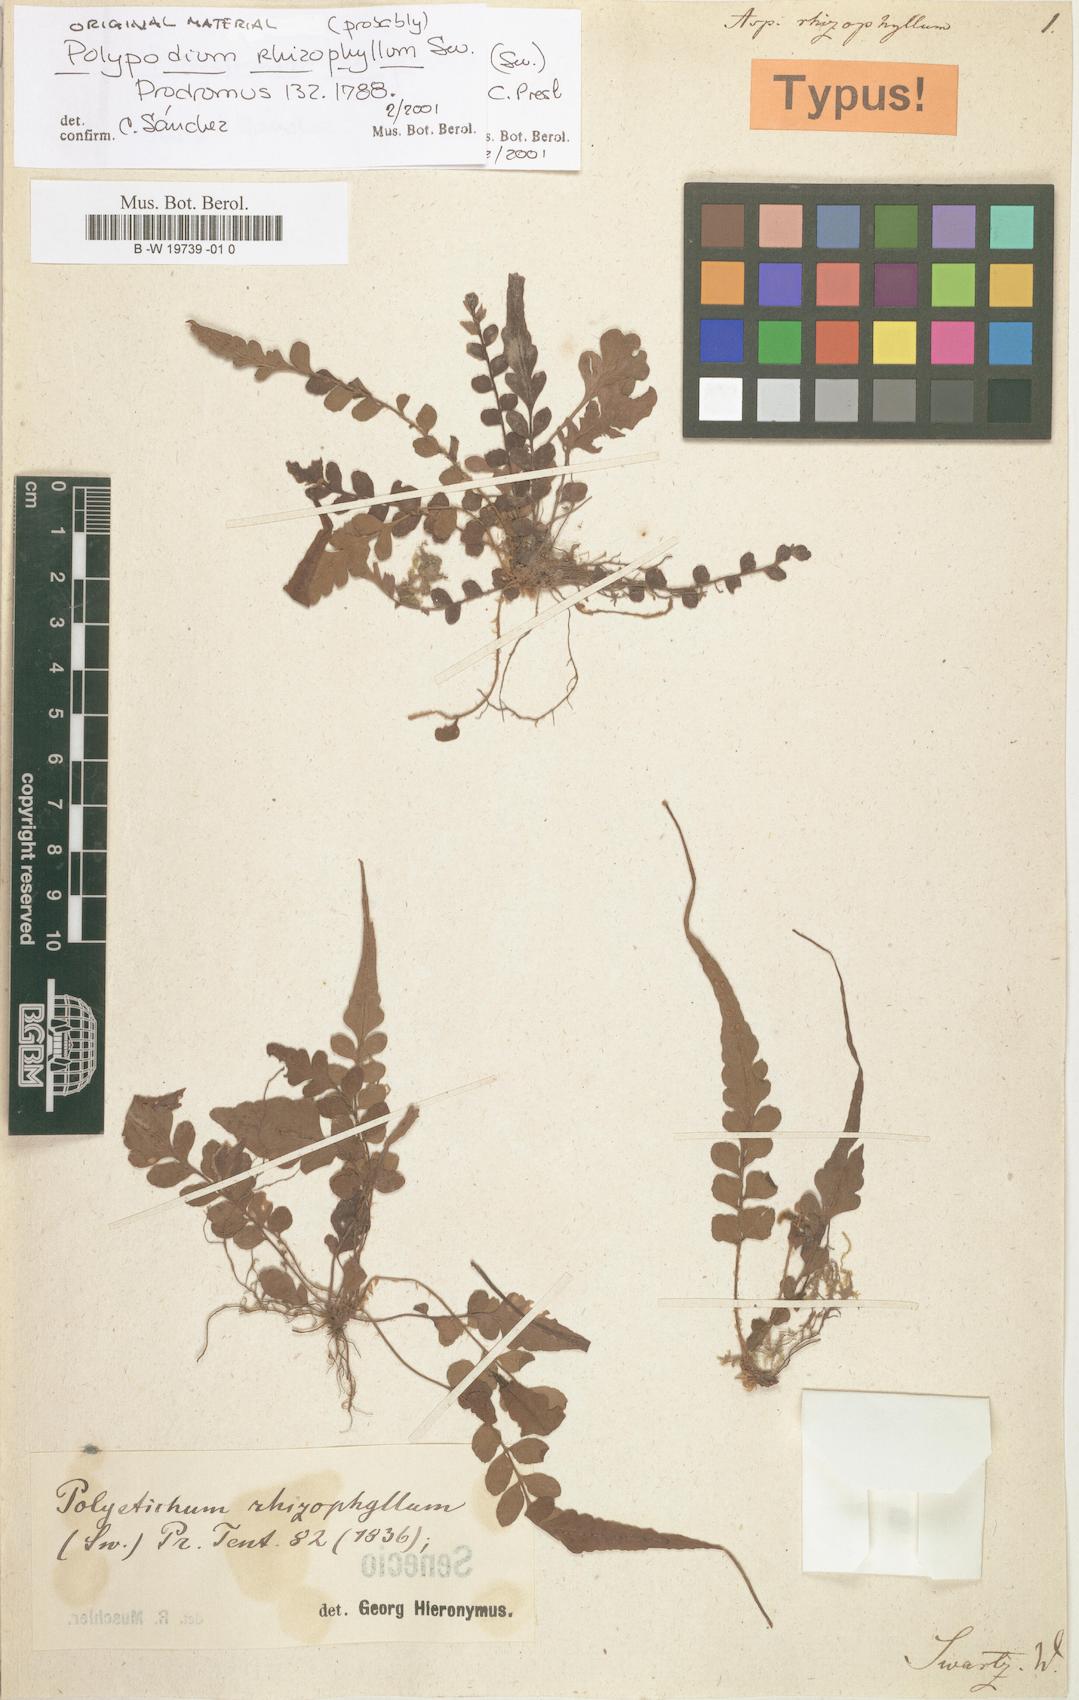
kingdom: Plantae
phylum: Tracheophyta
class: Polypodiopsida
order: Polypodiales
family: Dryopteridaceae
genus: Polystichum
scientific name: Polystichum rhizophyllum
